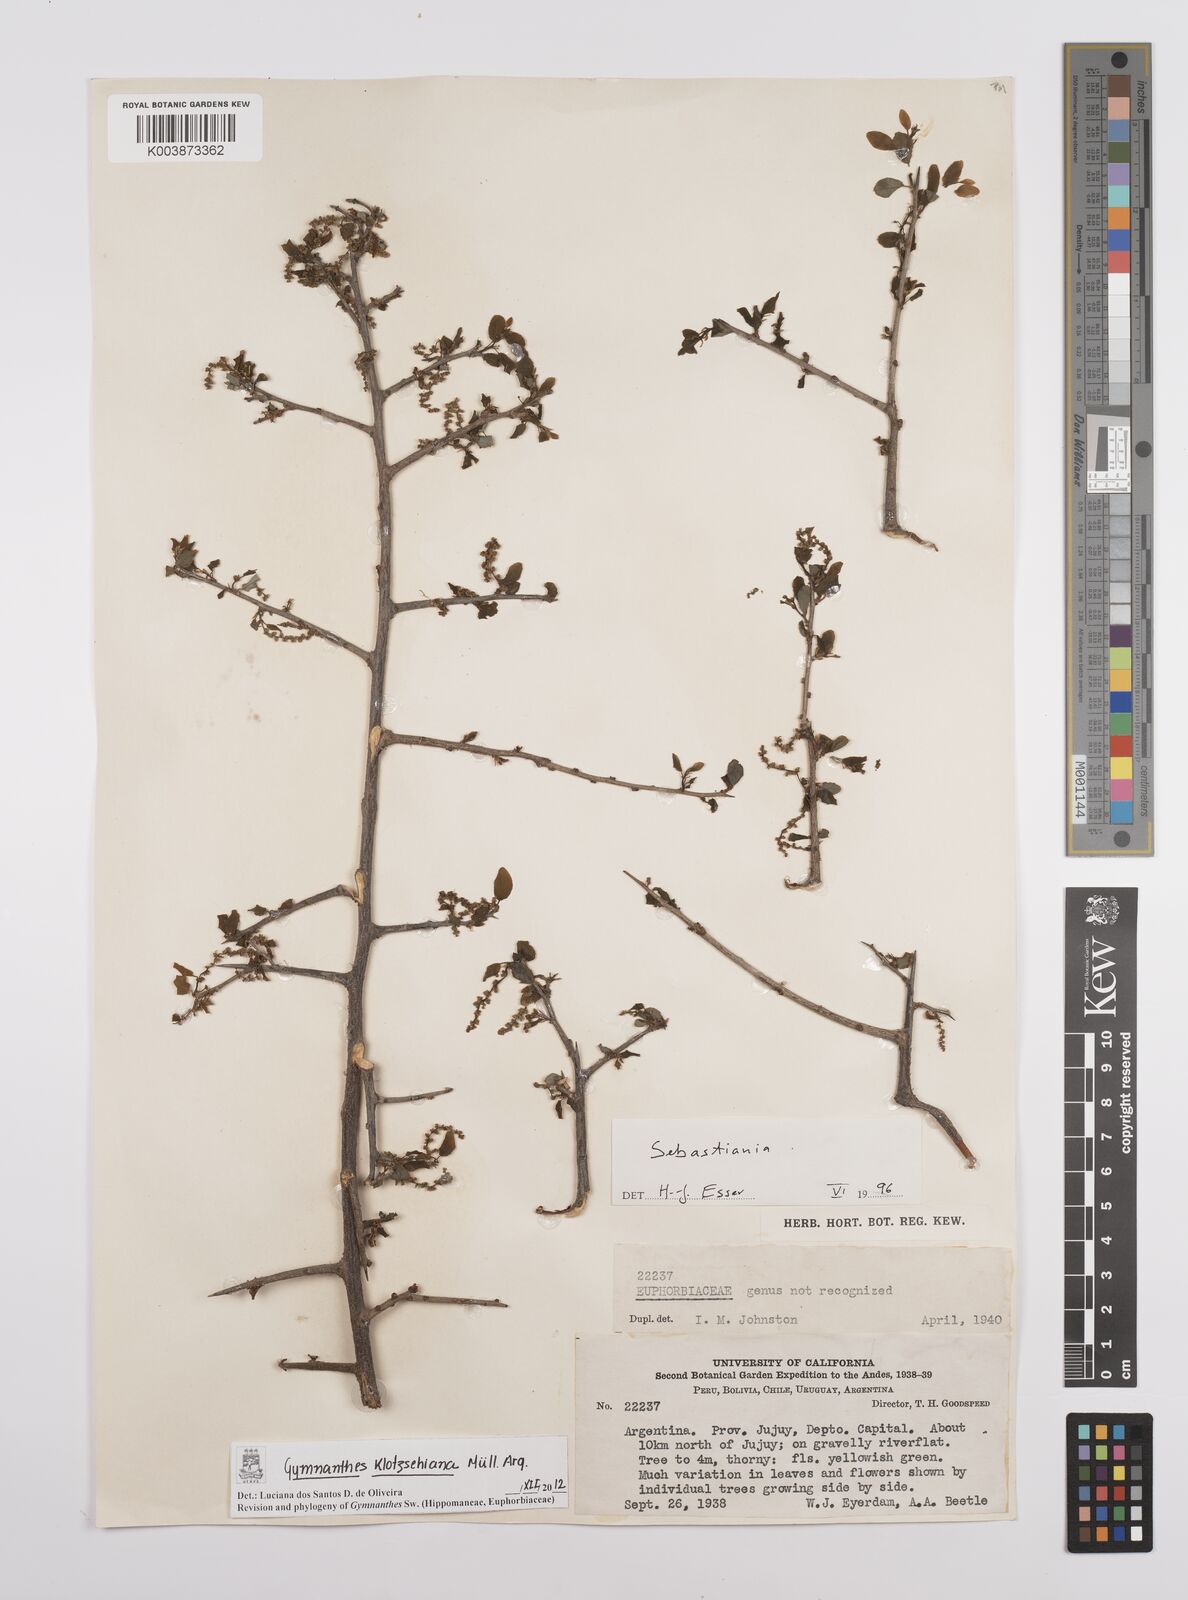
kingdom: Plantae
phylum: Tracheophyta
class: Magnoliopsida
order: Malpighiales
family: Euphorbiaceae
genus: Sebastiania
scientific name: Sebastiania klotzschiana
